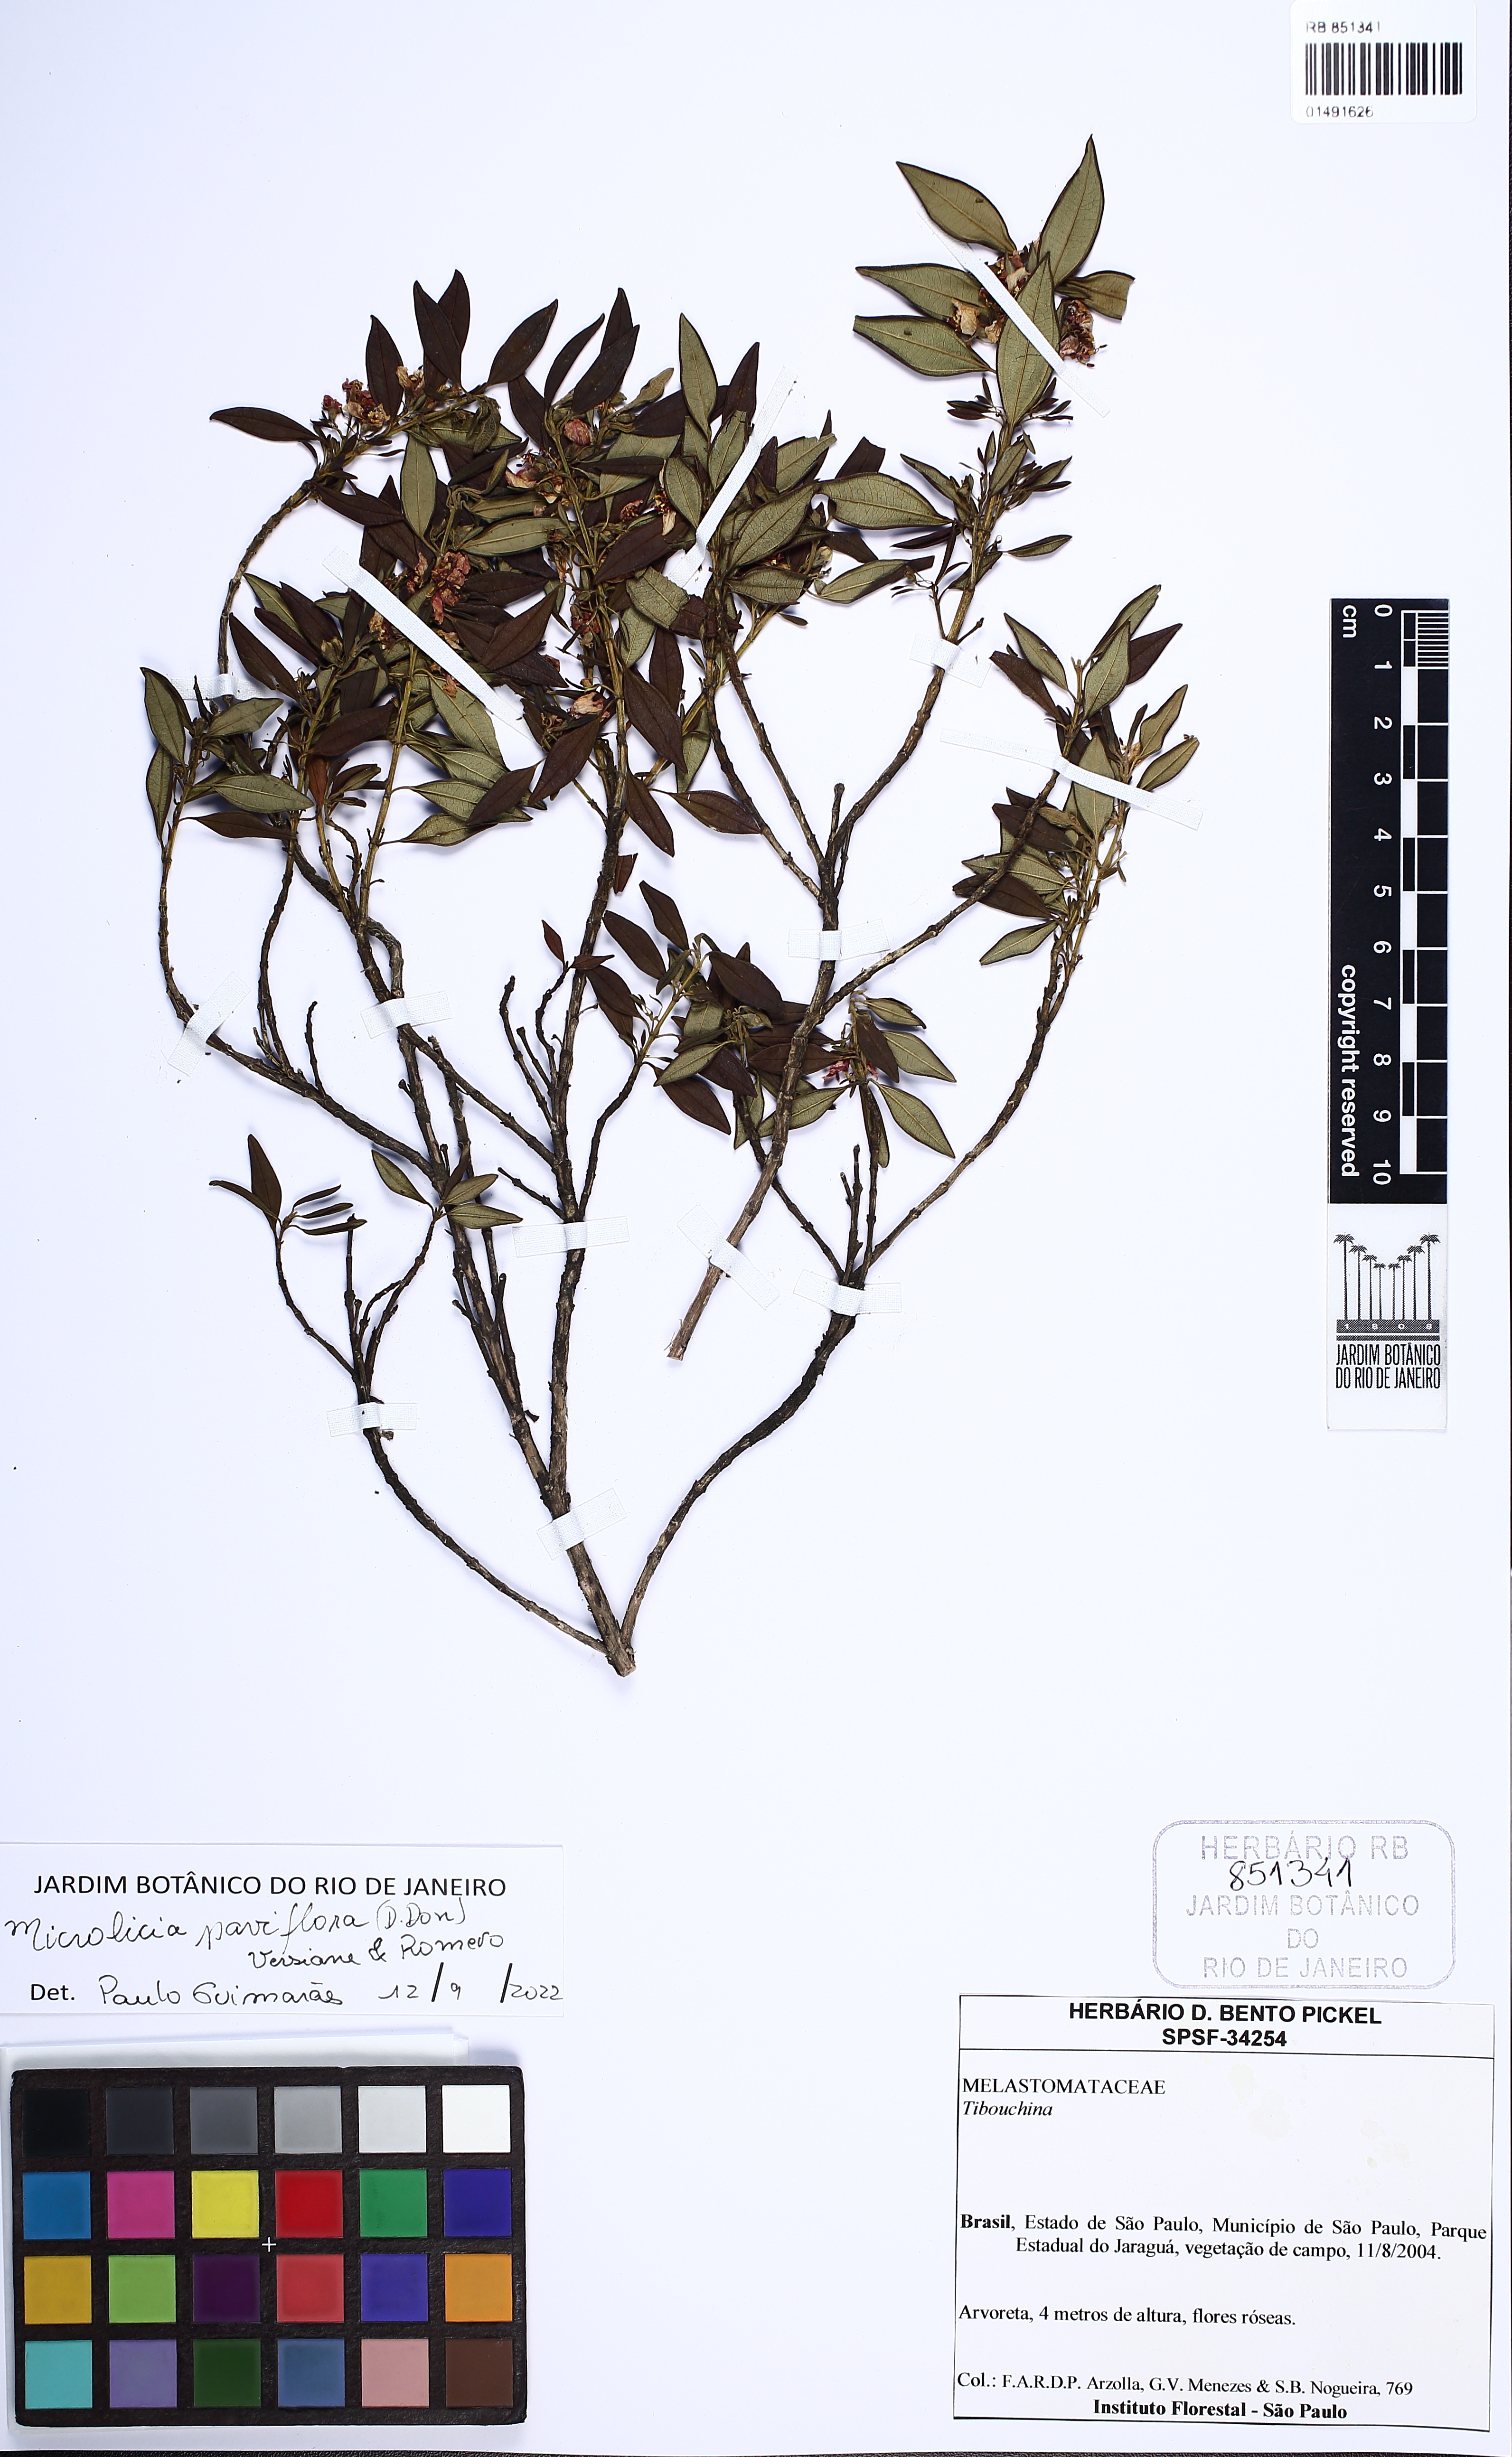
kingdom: Plantae
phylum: Tracheophyta
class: Magnoliopsida
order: Myrtales
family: Melastomataceae
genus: Microlicia
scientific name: Microlicia parviflora
